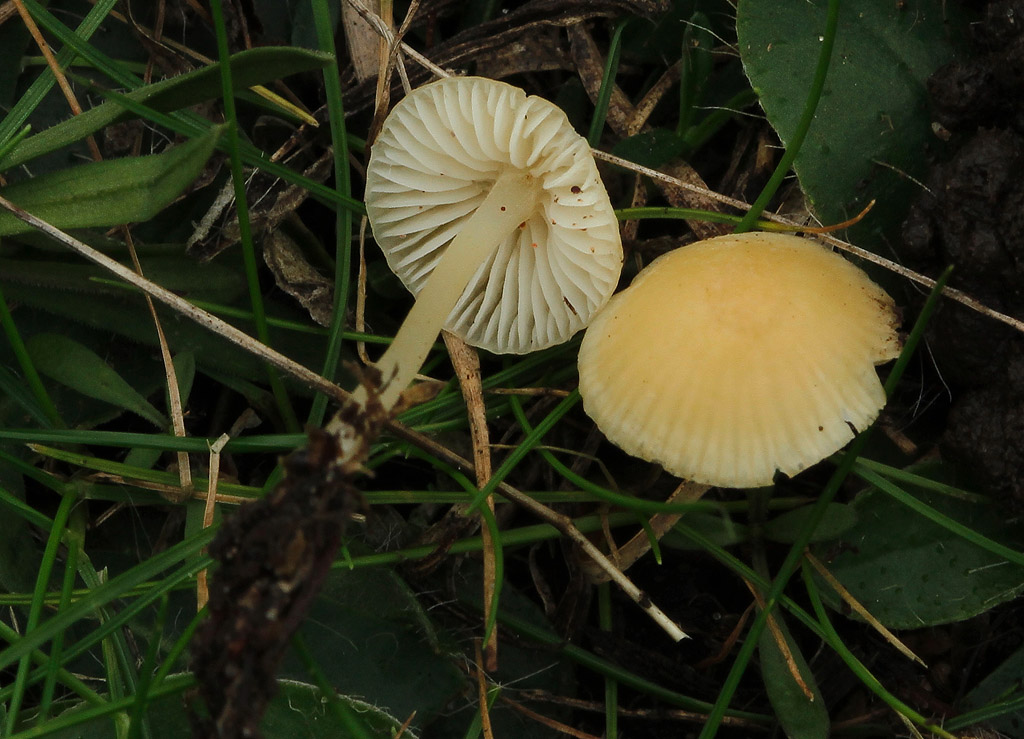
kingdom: Fungi
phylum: Basidiomycota
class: Agaricomycetes
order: Agaricales
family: Mycenaceae
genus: Atheniella
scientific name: Atheniella flavoalba
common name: gulhvid huesvamp
